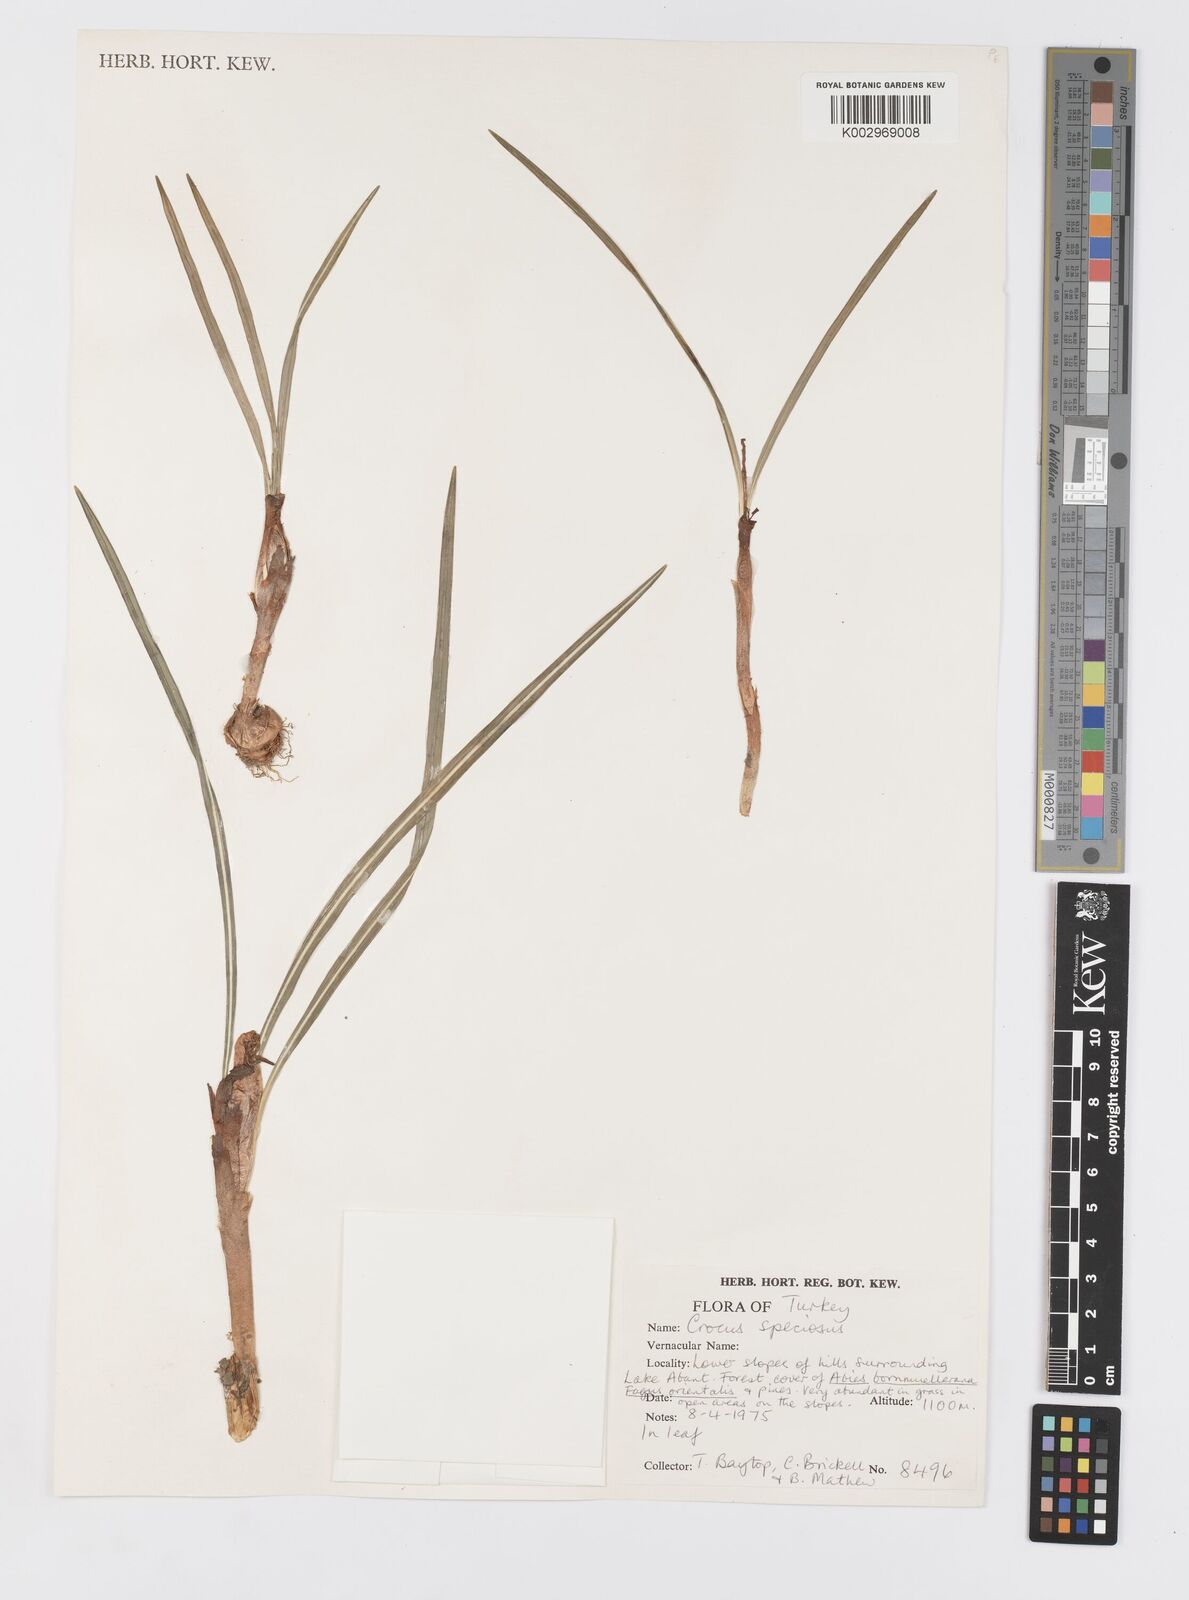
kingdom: Plantae
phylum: Tracheophyta
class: Liliopsida
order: Asparagales
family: Iridaceae
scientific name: Iridaceae
